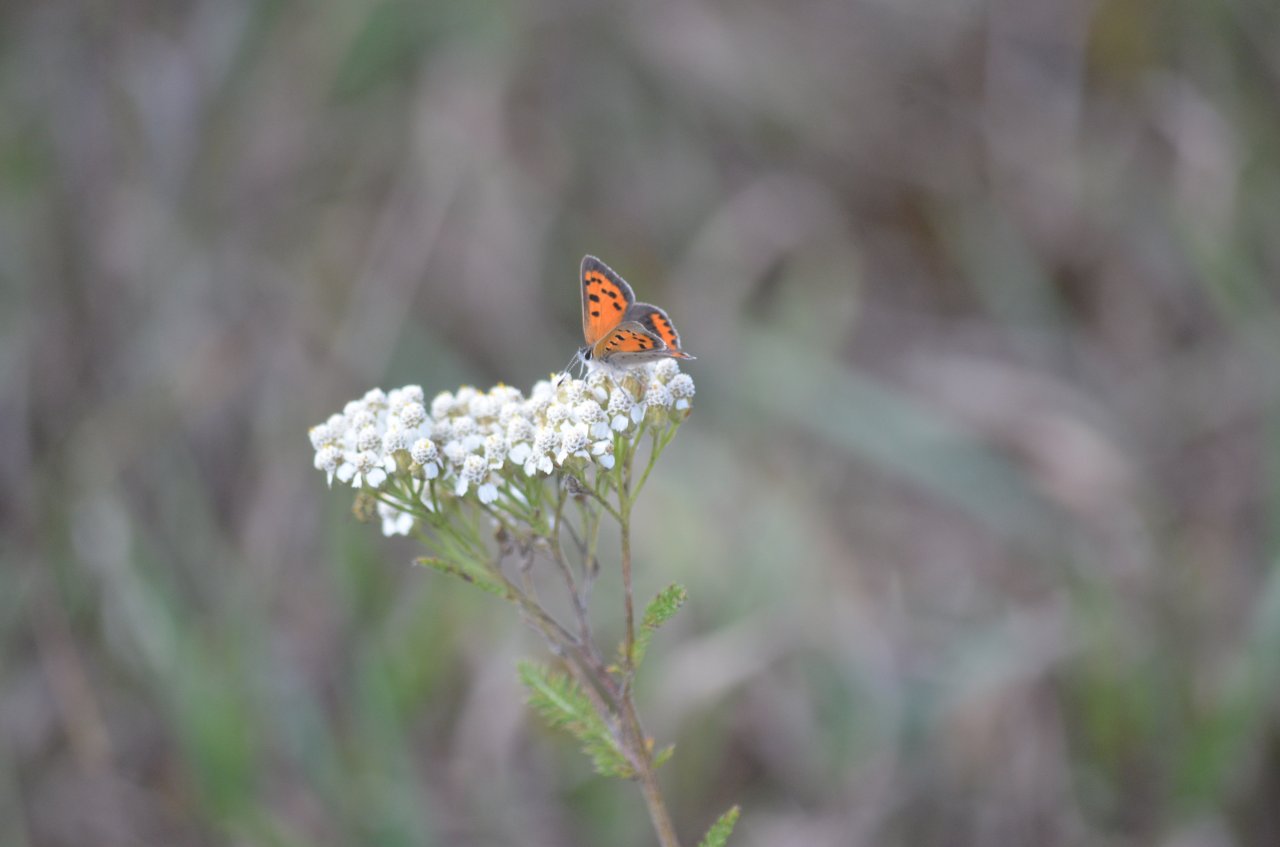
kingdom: Animalia
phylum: Arthropoda
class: Insecta
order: Lepidoptera
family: Lycaenidae
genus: Lycaena
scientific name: Lycaena phlaeas
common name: American Copper
